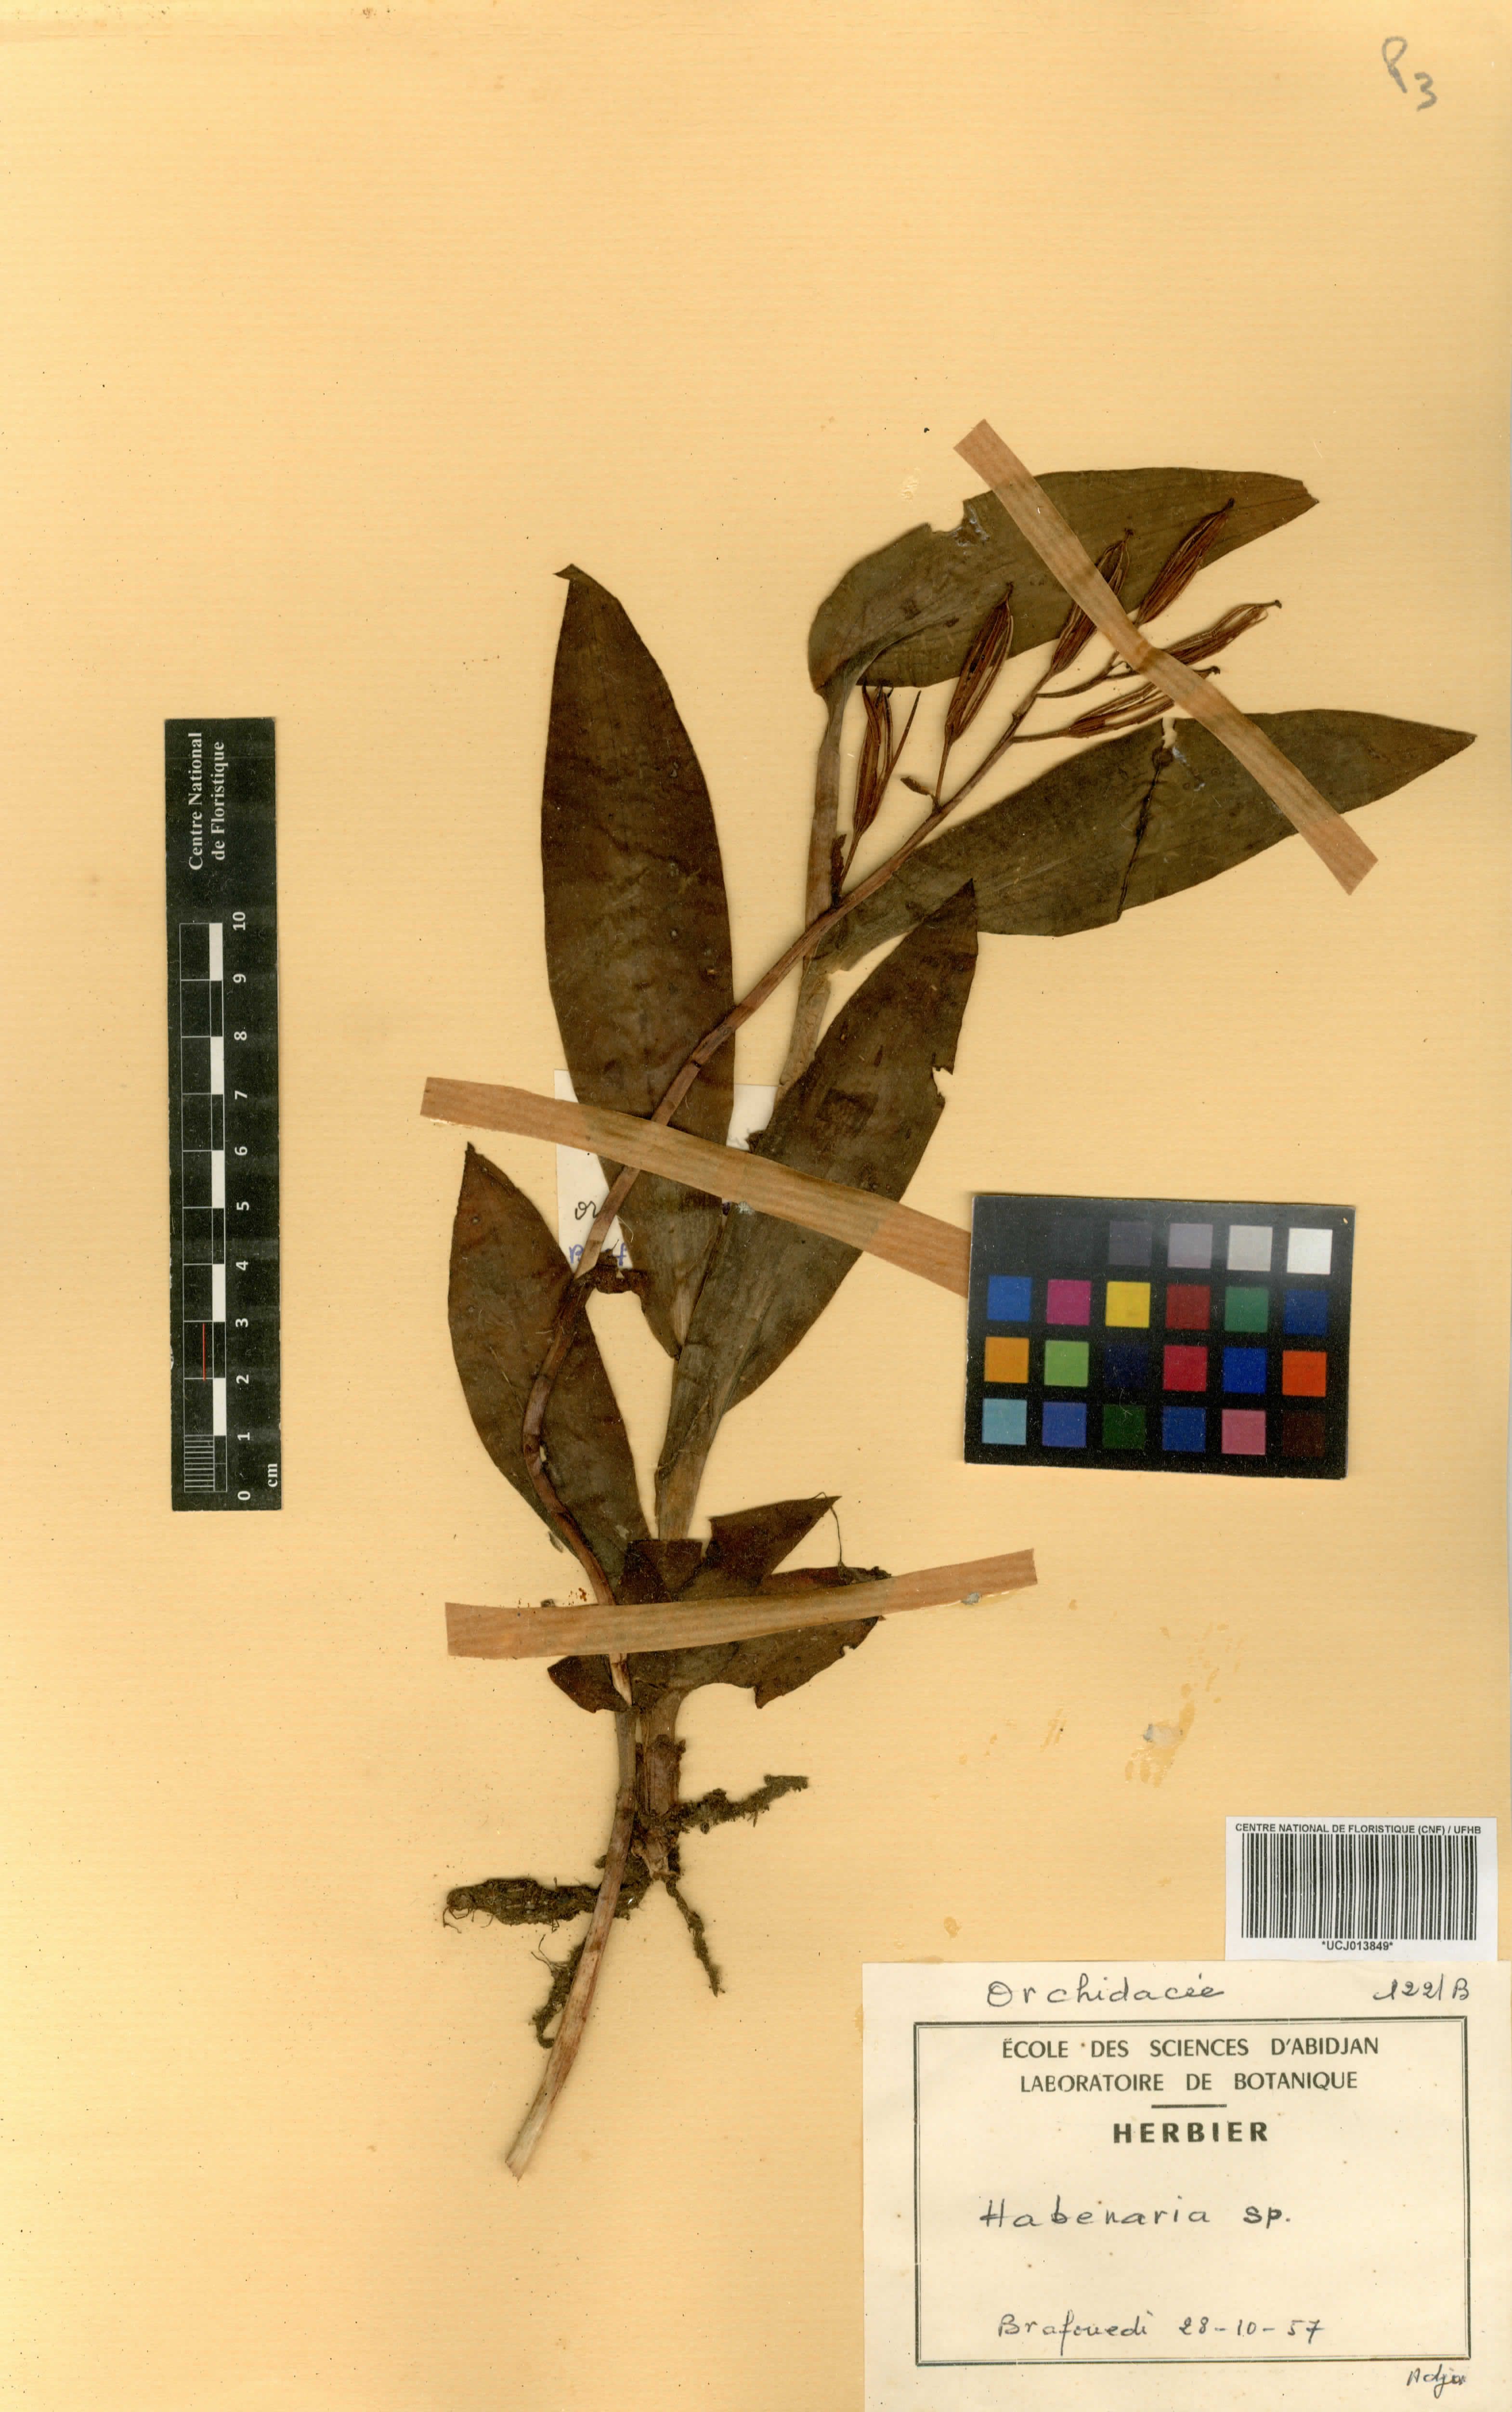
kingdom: Plantae
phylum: Tracheophyta
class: Liliopsida
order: Asparagales
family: Orchidaceae
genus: Habenaria
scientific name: Habenaria
